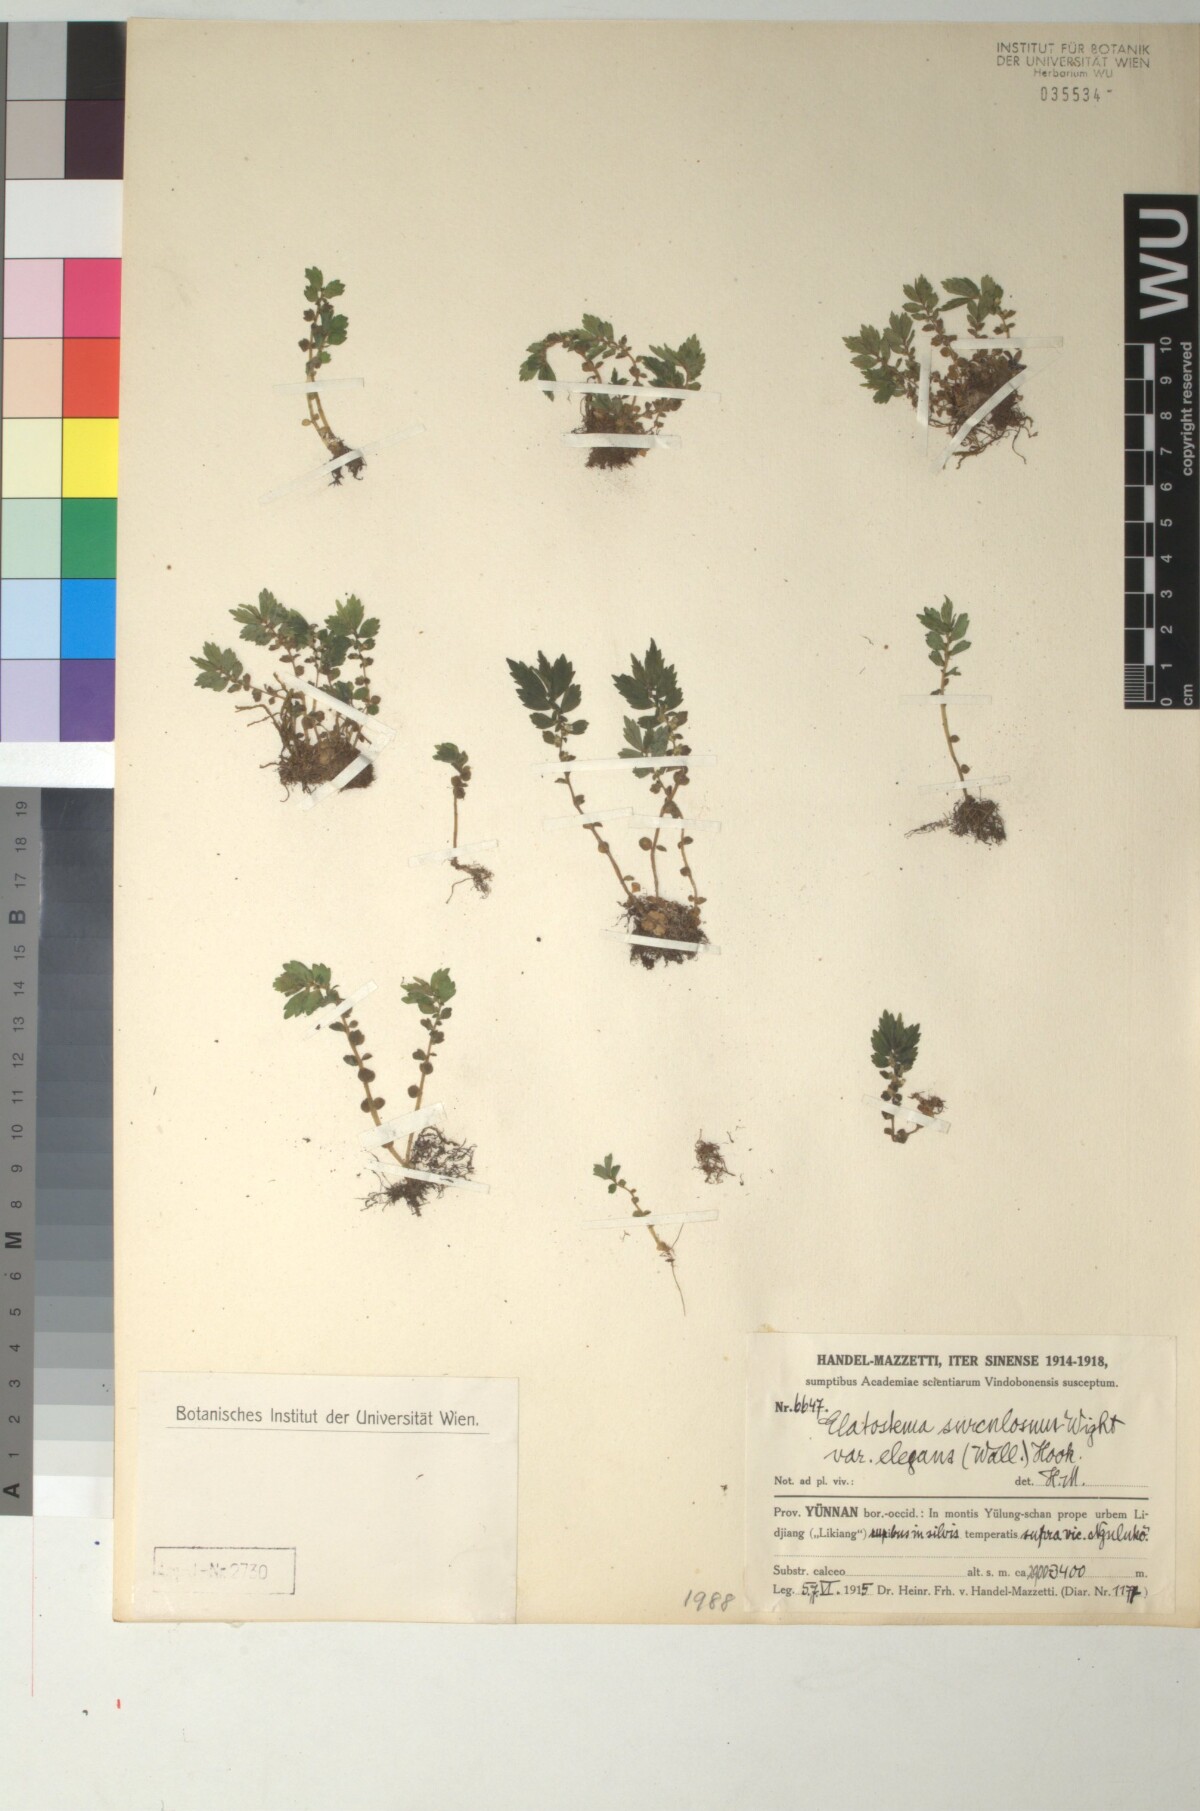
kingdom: Plantae
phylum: Tracheophyta
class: Magnoliopsida
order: Rosales
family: Urticaceae
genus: Elatostema
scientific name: Elatostema monandrum
